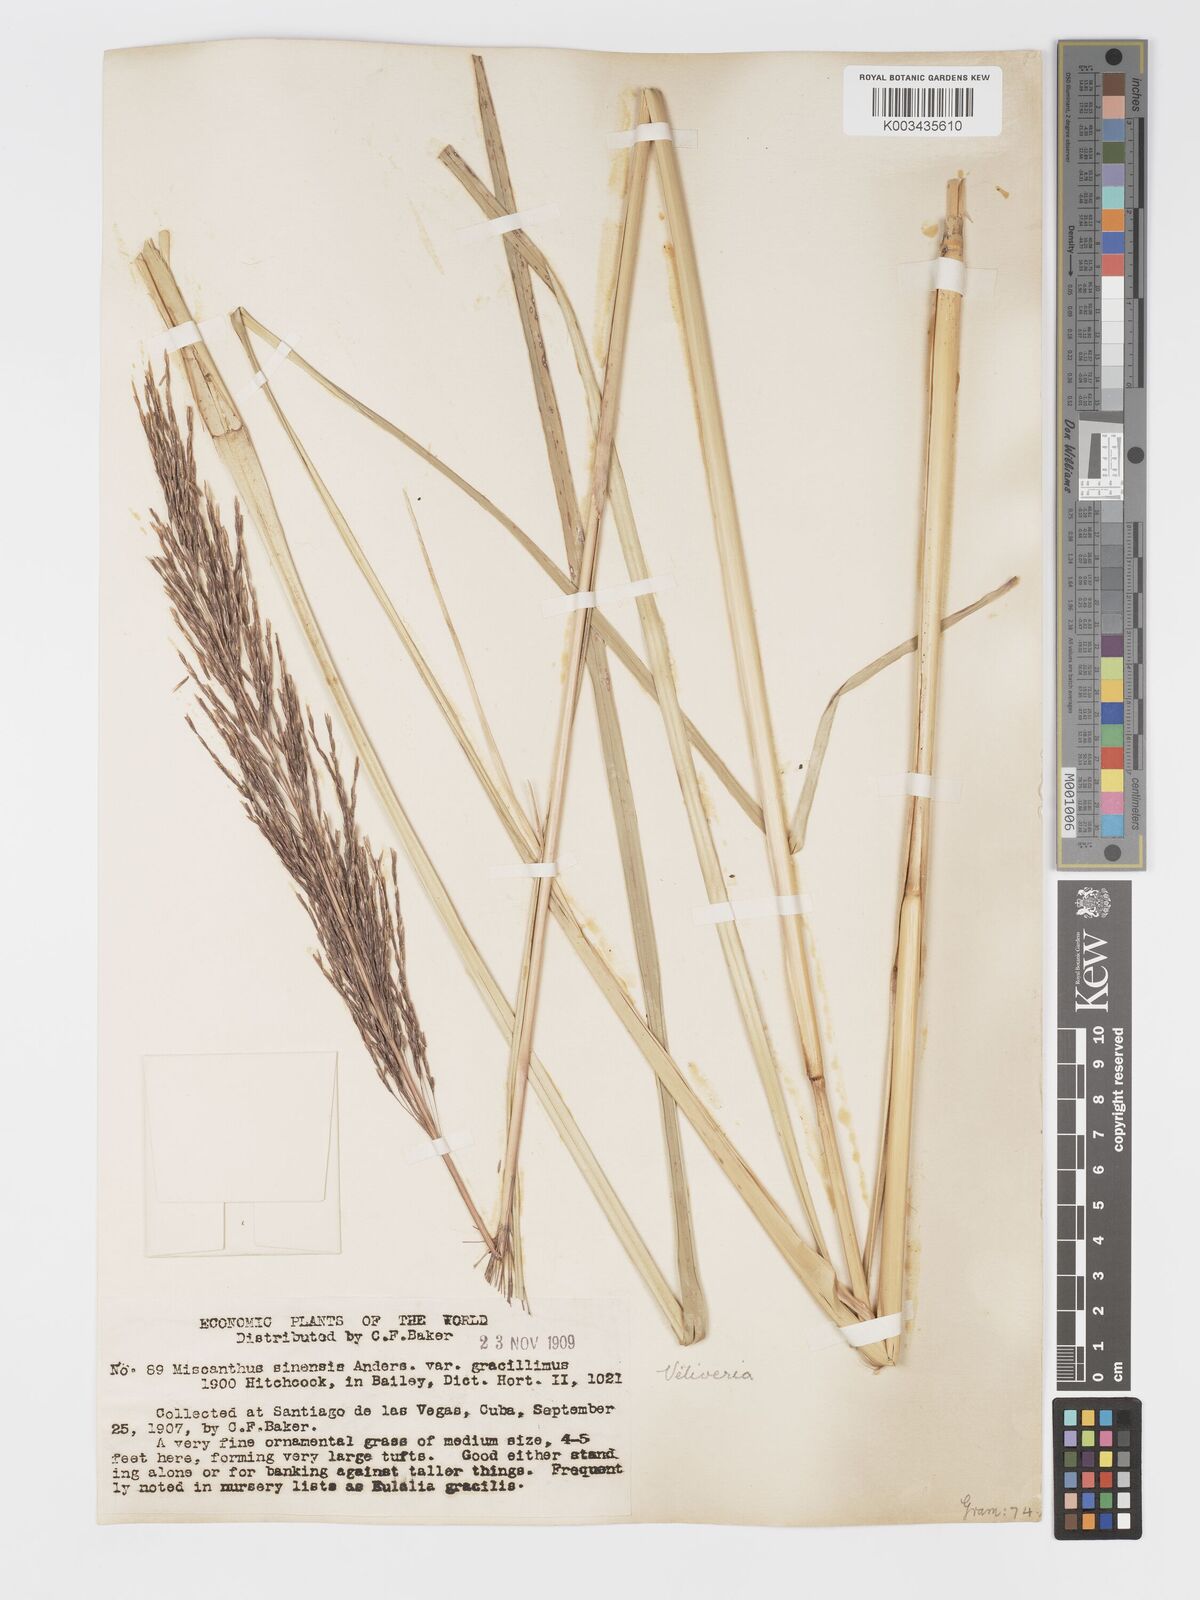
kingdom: Plantae
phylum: Tracheophyta
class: Liliopsida
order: Poales
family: Poaceae
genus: Chrysopogon
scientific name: Chrysopogon zizanioides
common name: False beardgrass
